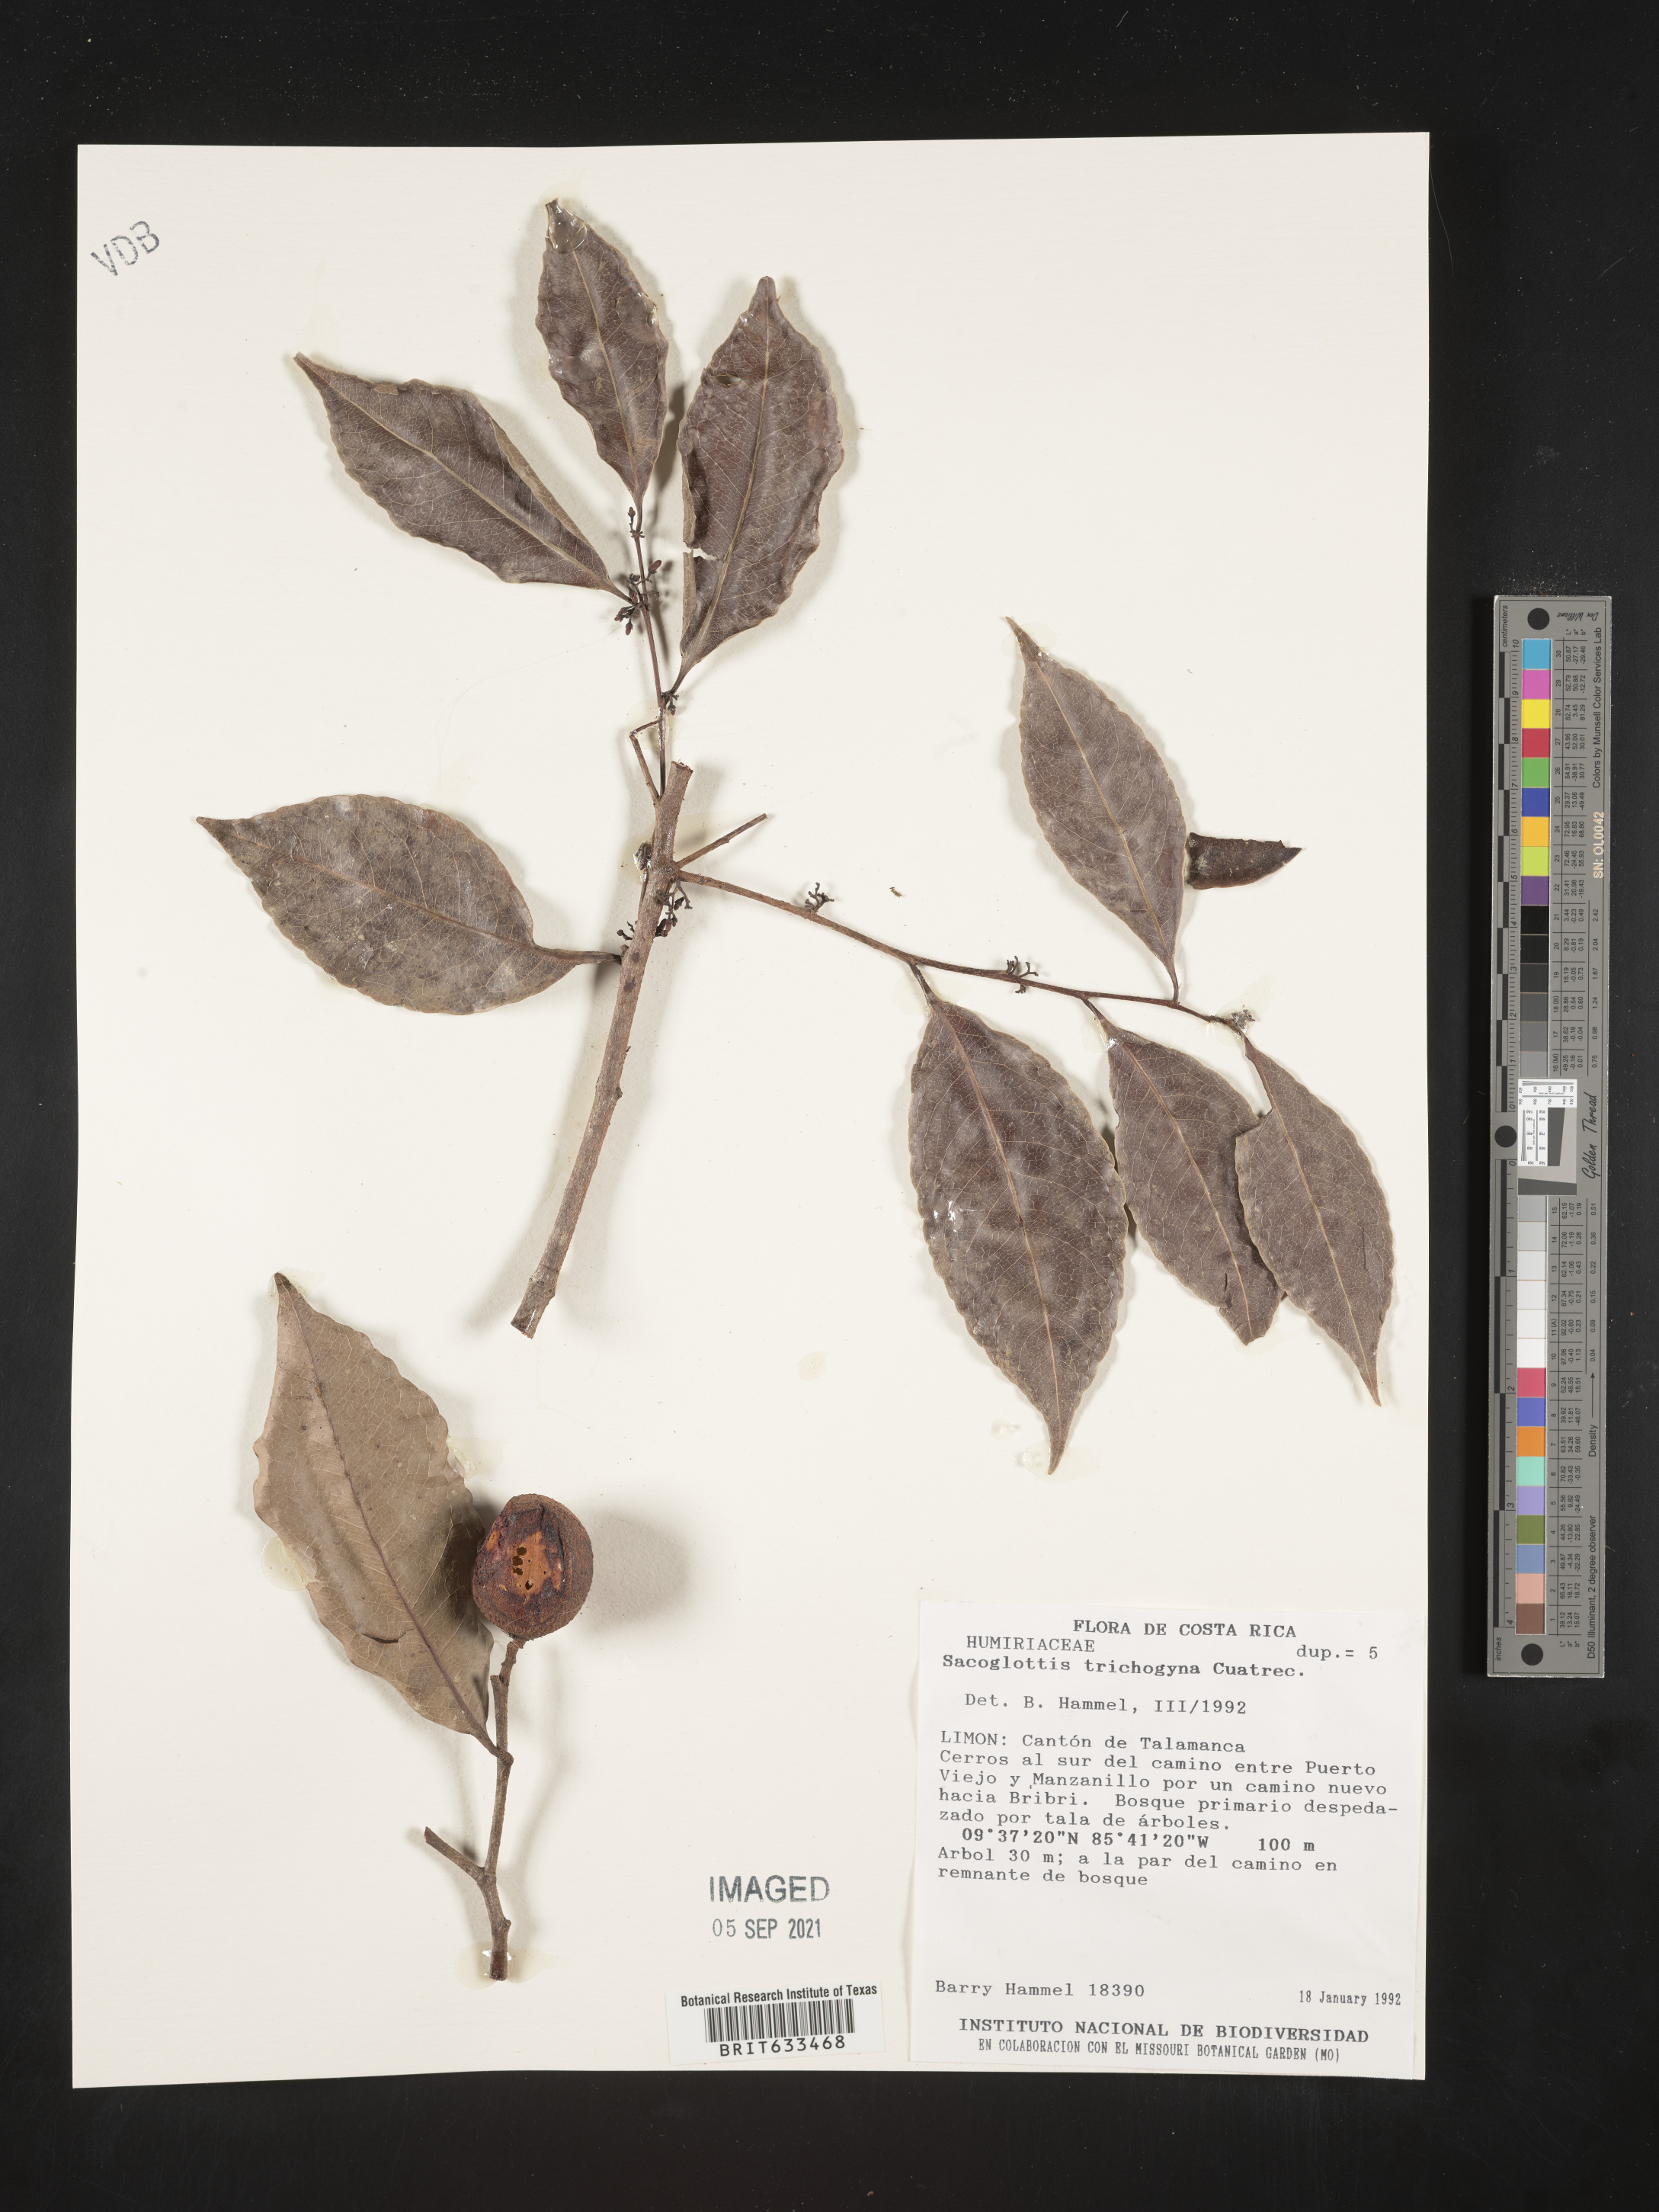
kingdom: Plantae
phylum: Tracheophyta
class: Magnoliopsida
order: Malpighiales
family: Humiriaceae
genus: Sacoglottis
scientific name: Sacoglottis
